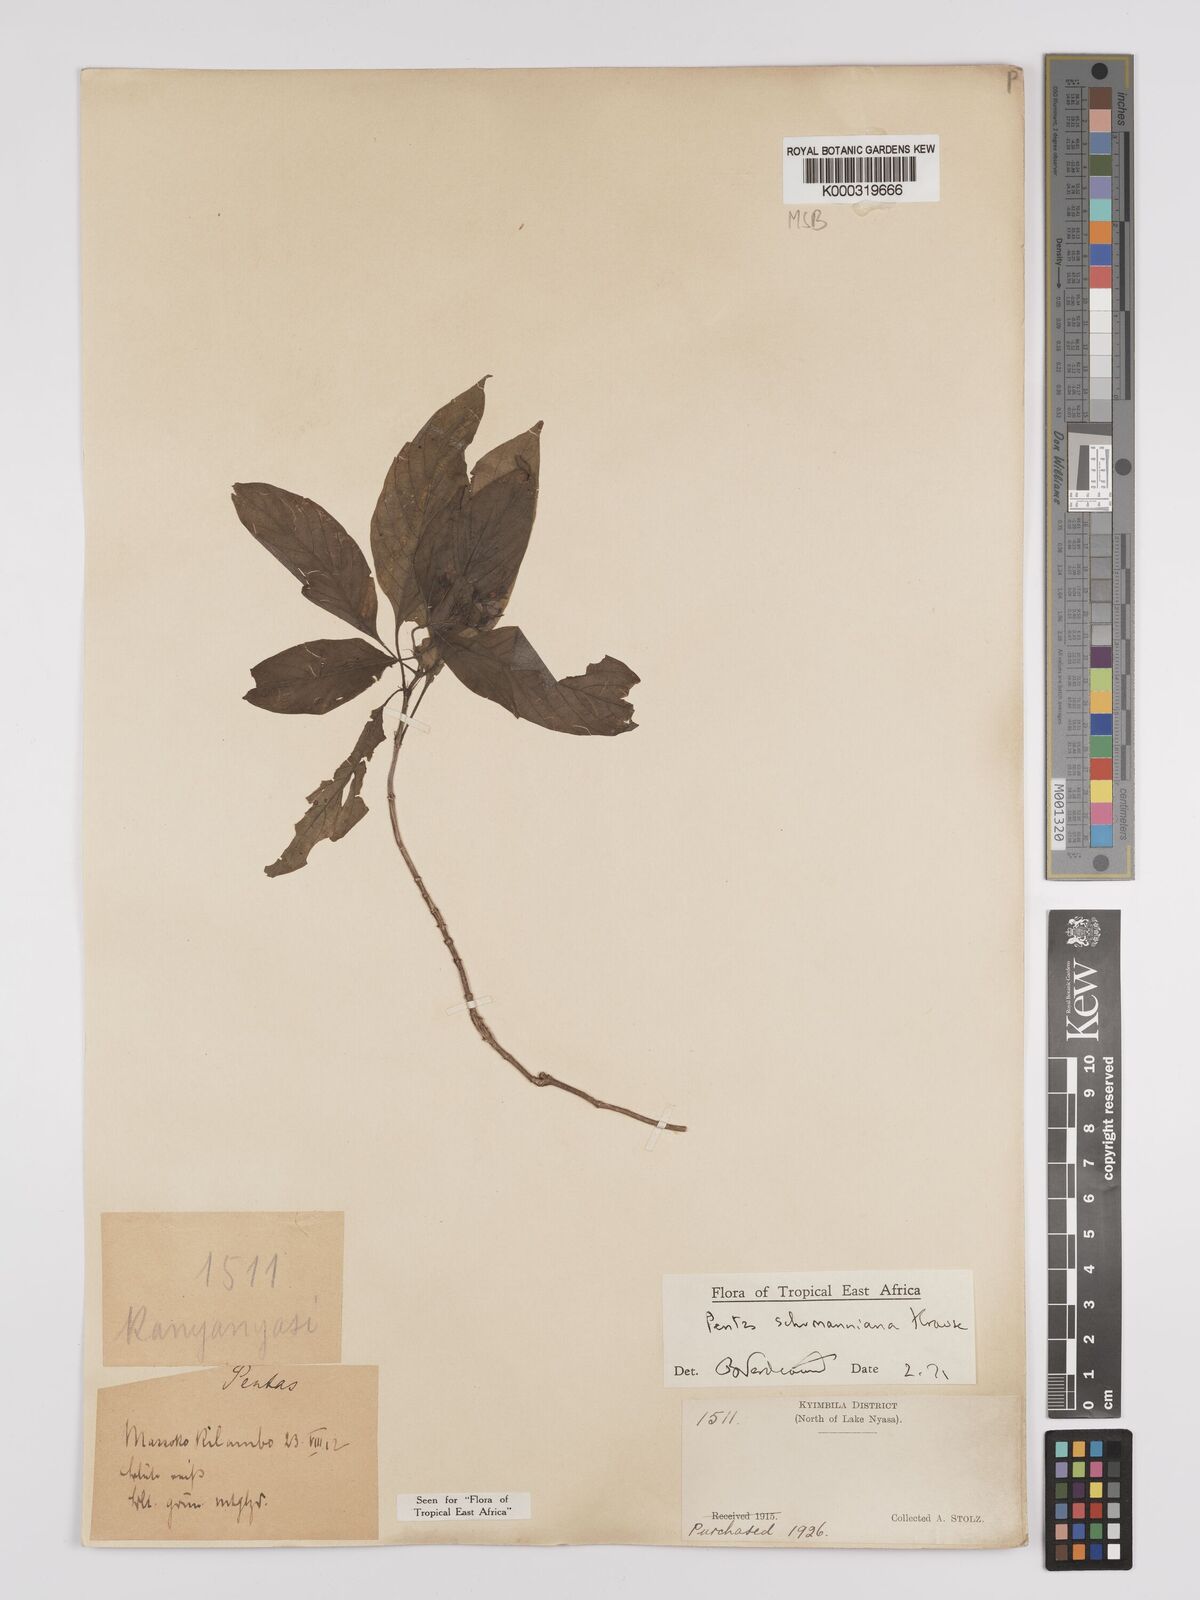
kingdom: Plantae
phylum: Tracheophyta
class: Magnoliopsida
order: Gentianales
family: Rubiaceae
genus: Phyllopentas
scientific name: Phyllopentas schumanniana
